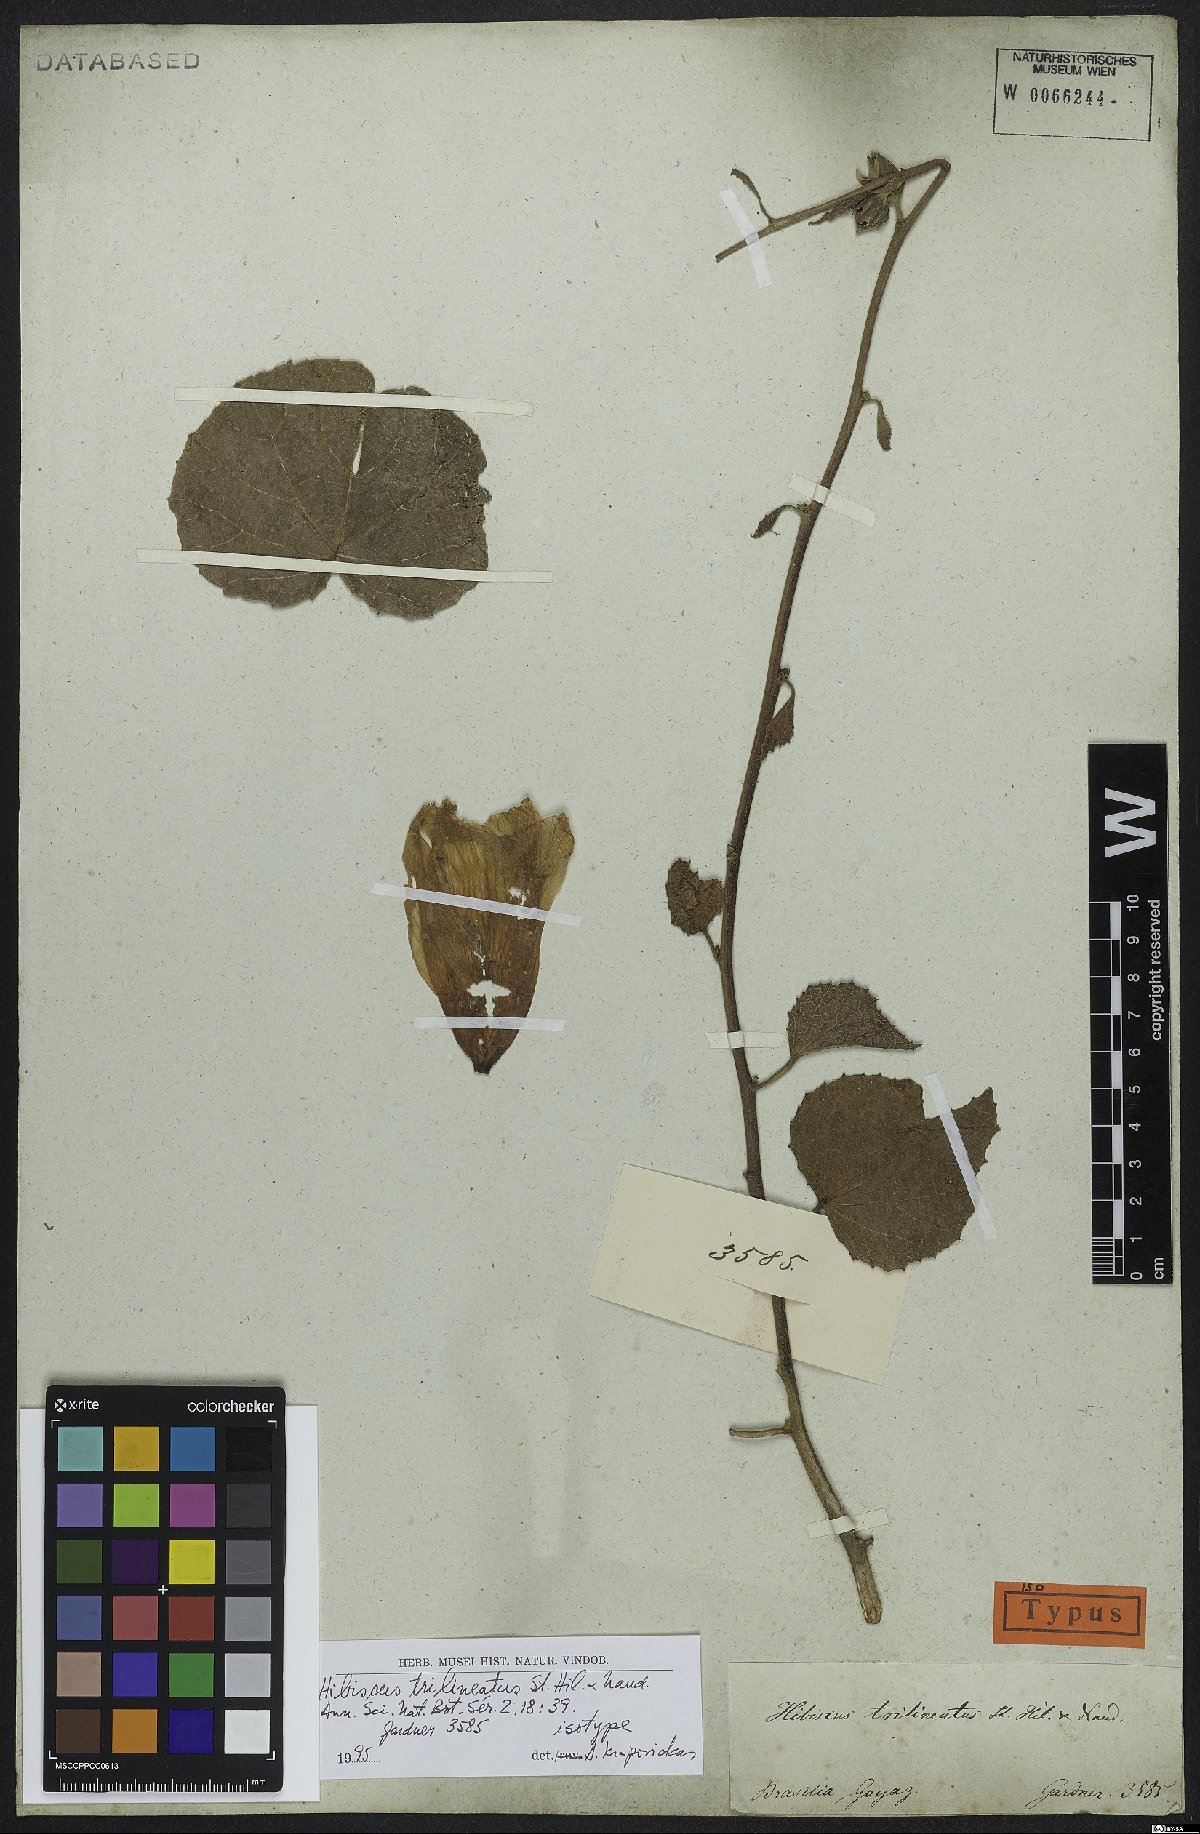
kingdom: Plantae
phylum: Tracheophyta
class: Magnoliopsida
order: Malvales
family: Malvaceae
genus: Hibiscus
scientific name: Hibiscus trilineatus
